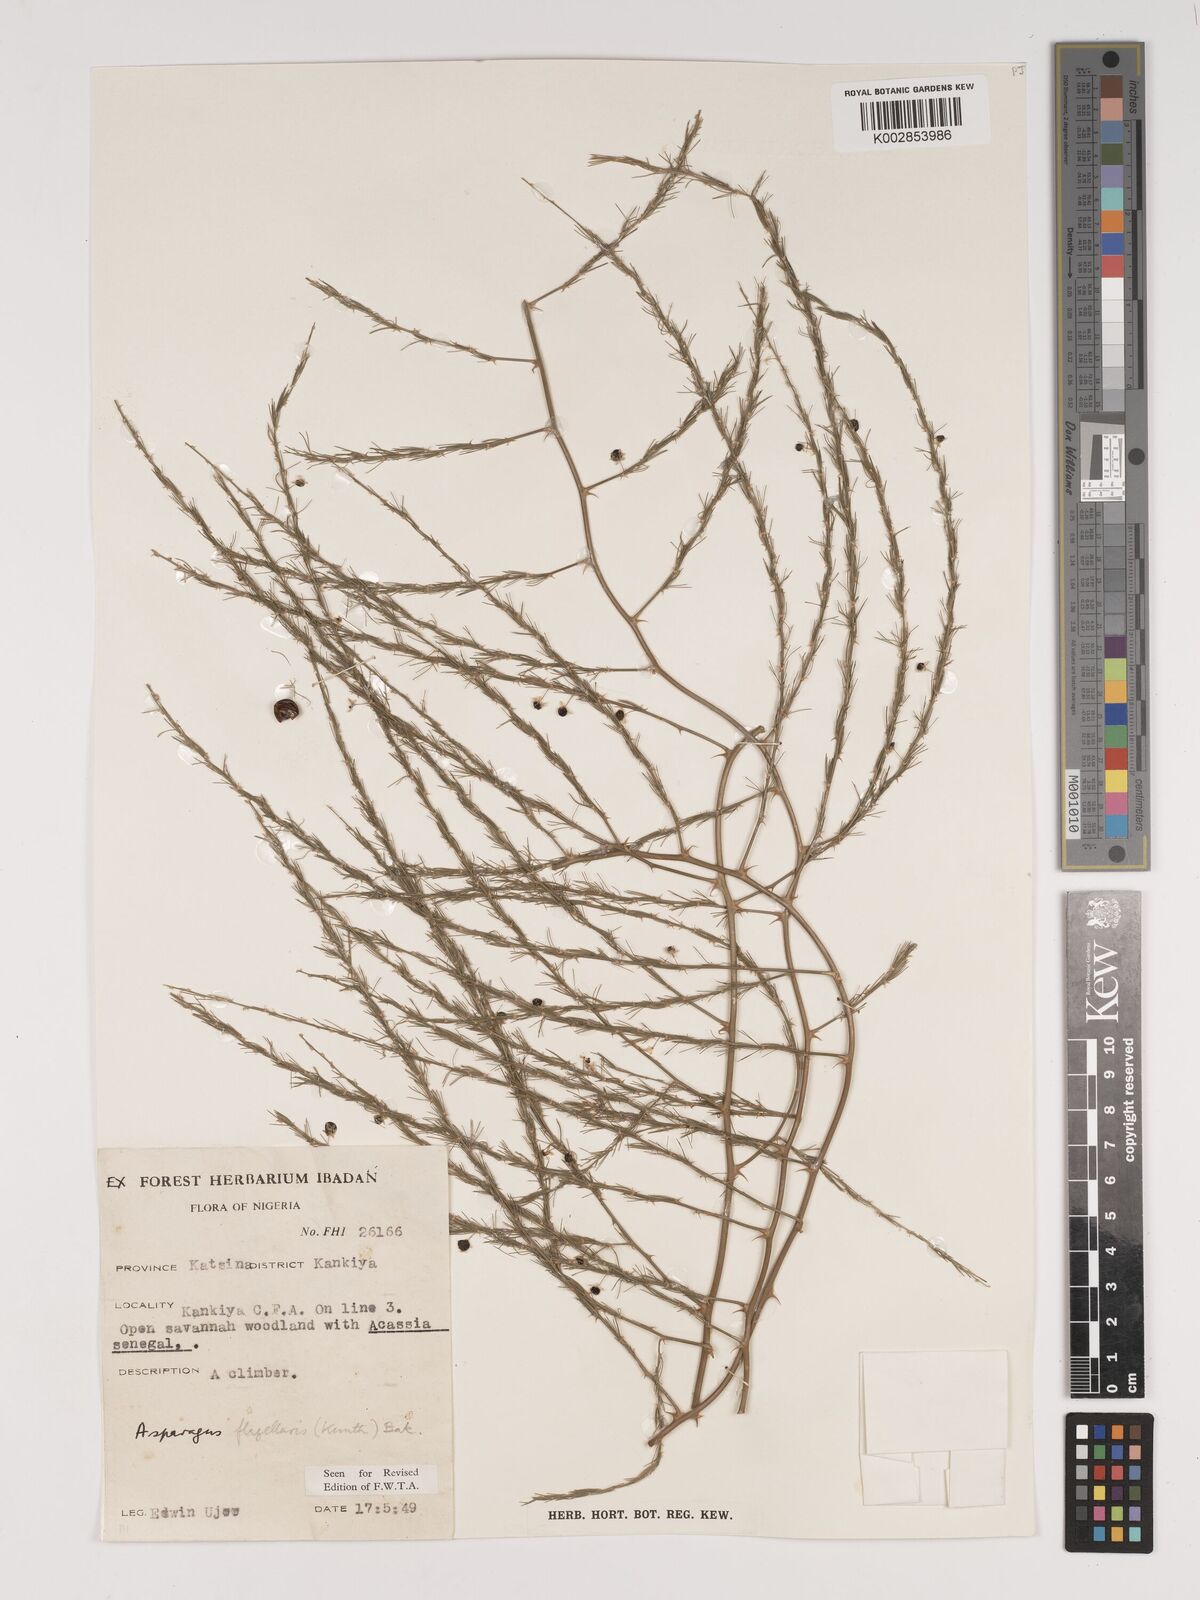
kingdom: Plantae
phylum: Tracheophyta
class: Liliopsida
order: Asparagales
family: Asparagaceae
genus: Asparagus
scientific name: Asparagus
